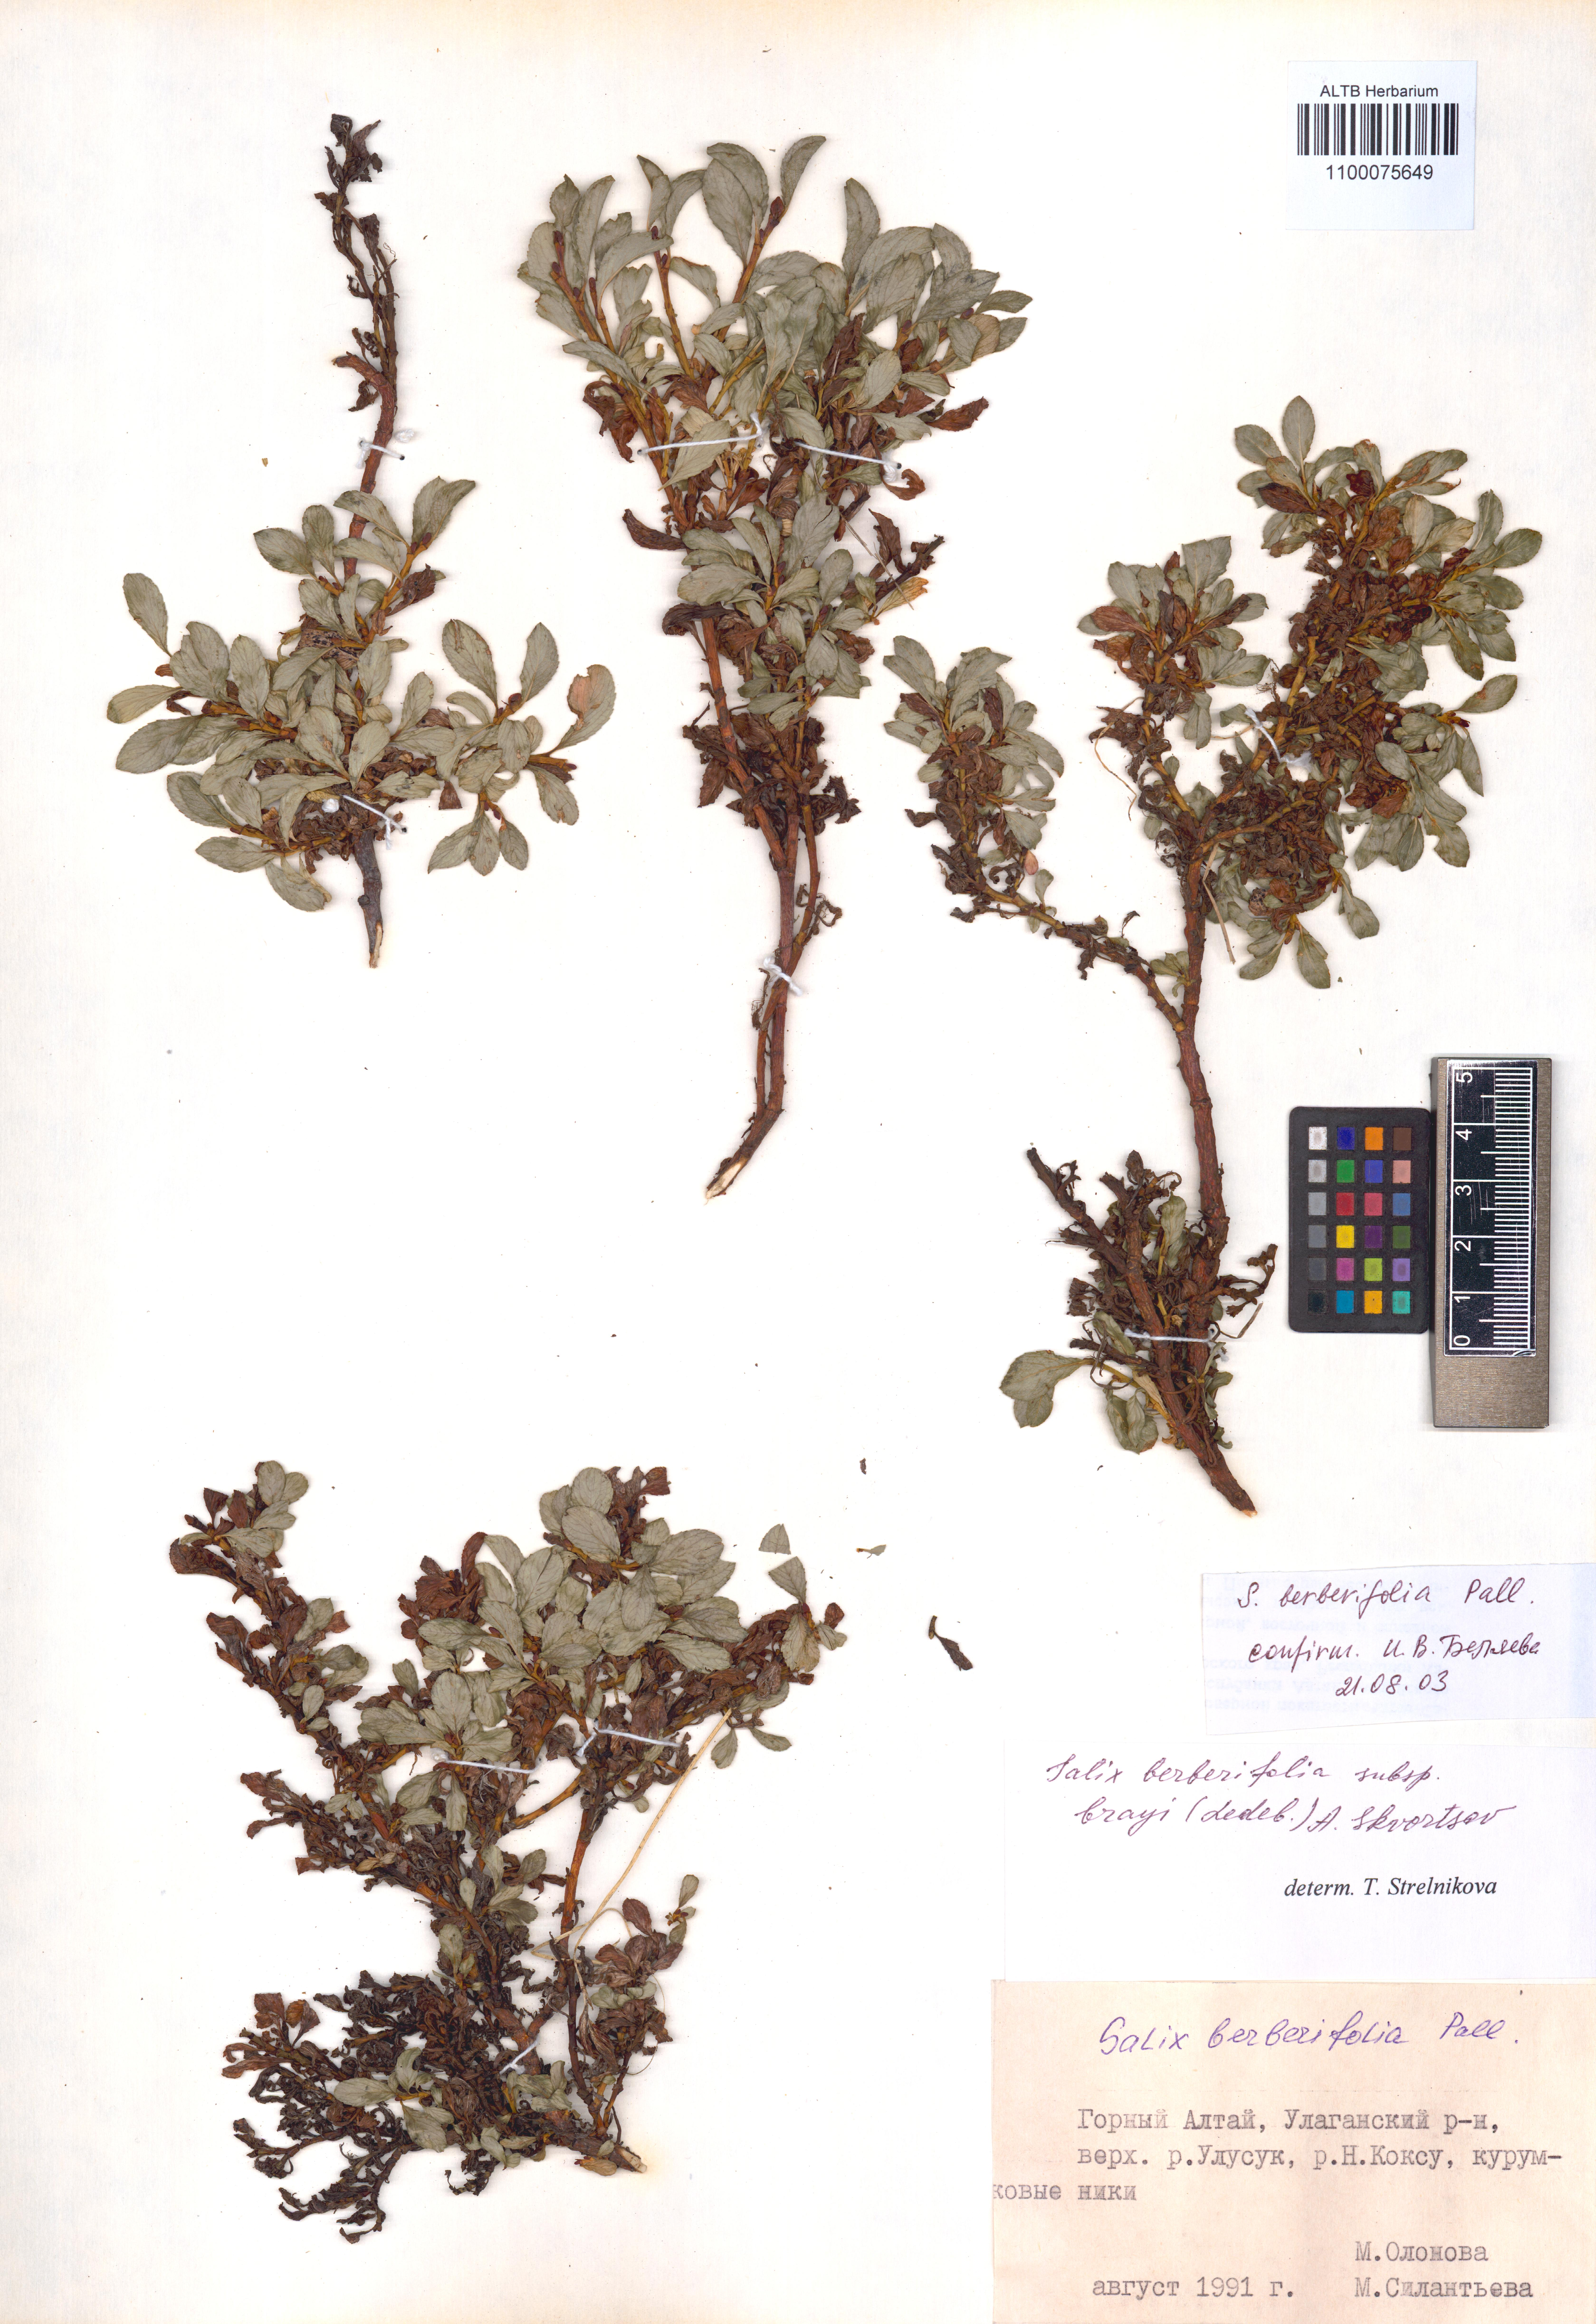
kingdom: Plantae
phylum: Tracheophyta
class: Magnoliopsida
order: Malpighiales
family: Salicaceae
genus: Salix
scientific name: Salix berberifolia
